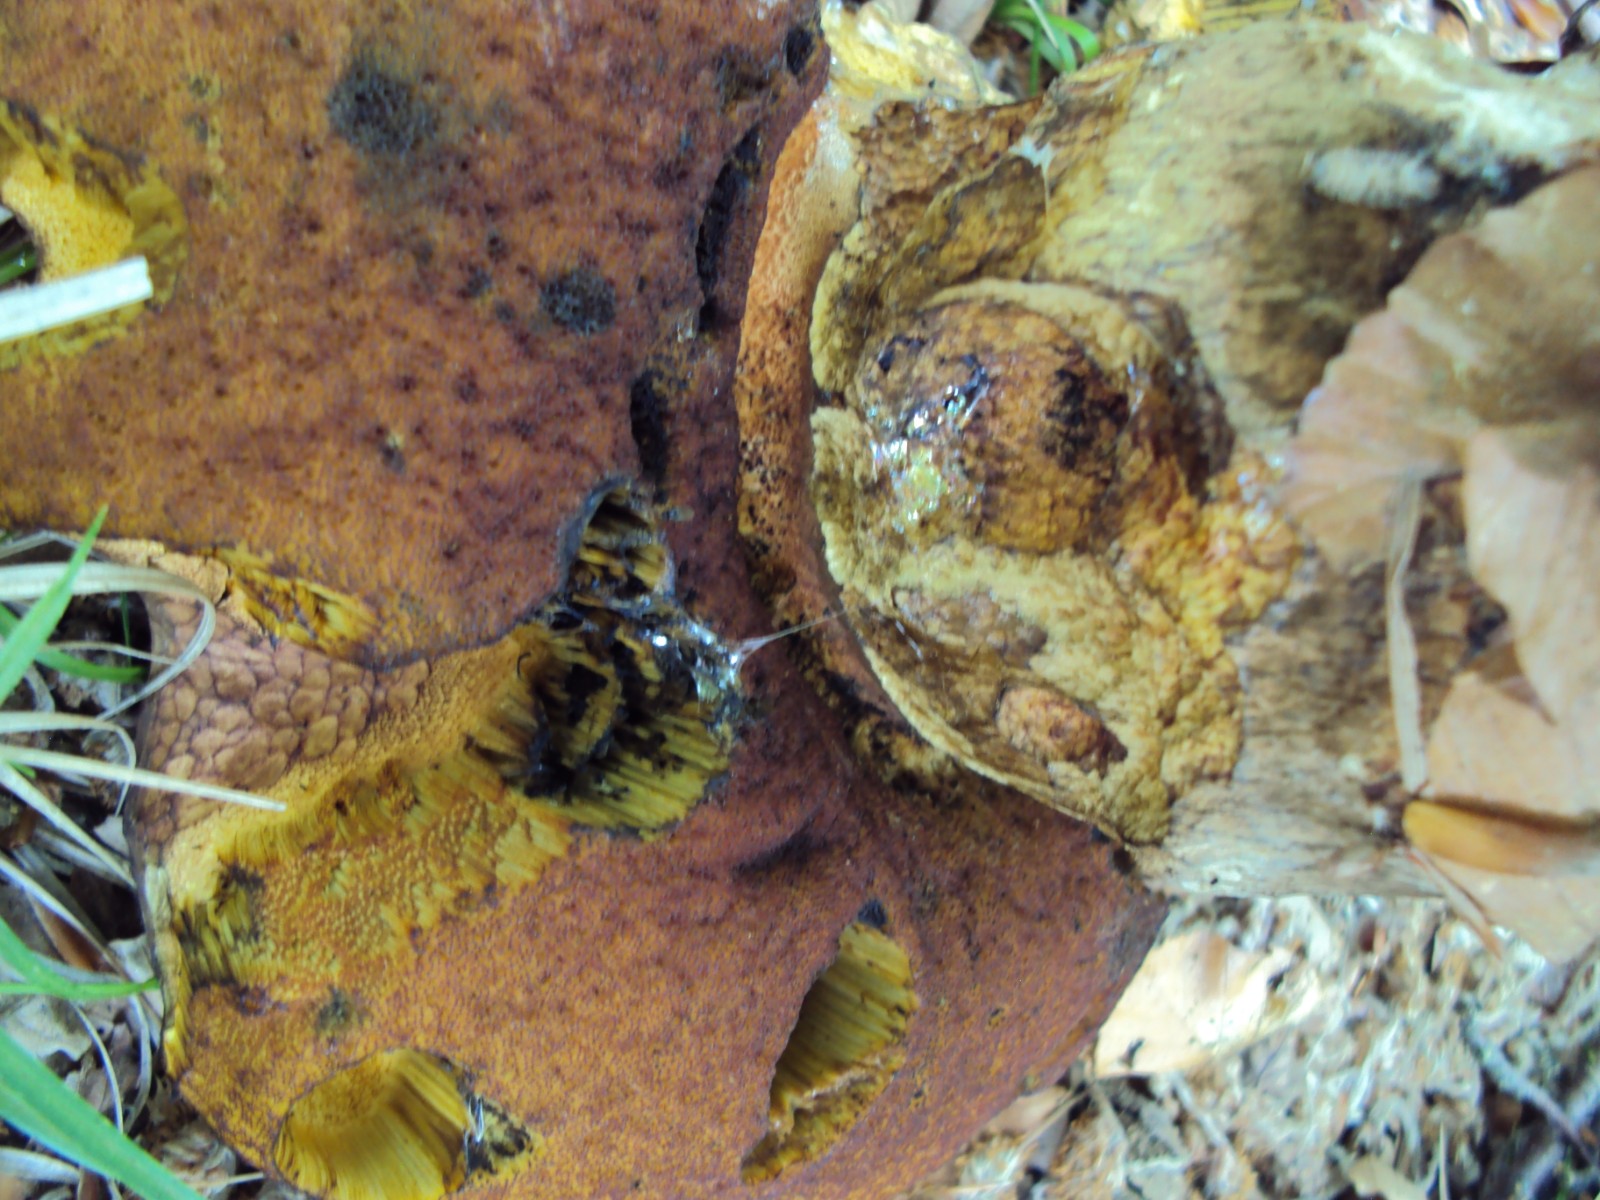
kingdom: Fungi
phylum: Basidiomycota
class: Agaricomycetes
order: Boletales
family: Boletaceae
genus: Neoboletus
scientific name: Neoboletus erythropus
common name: punktstokket indigorørhat
